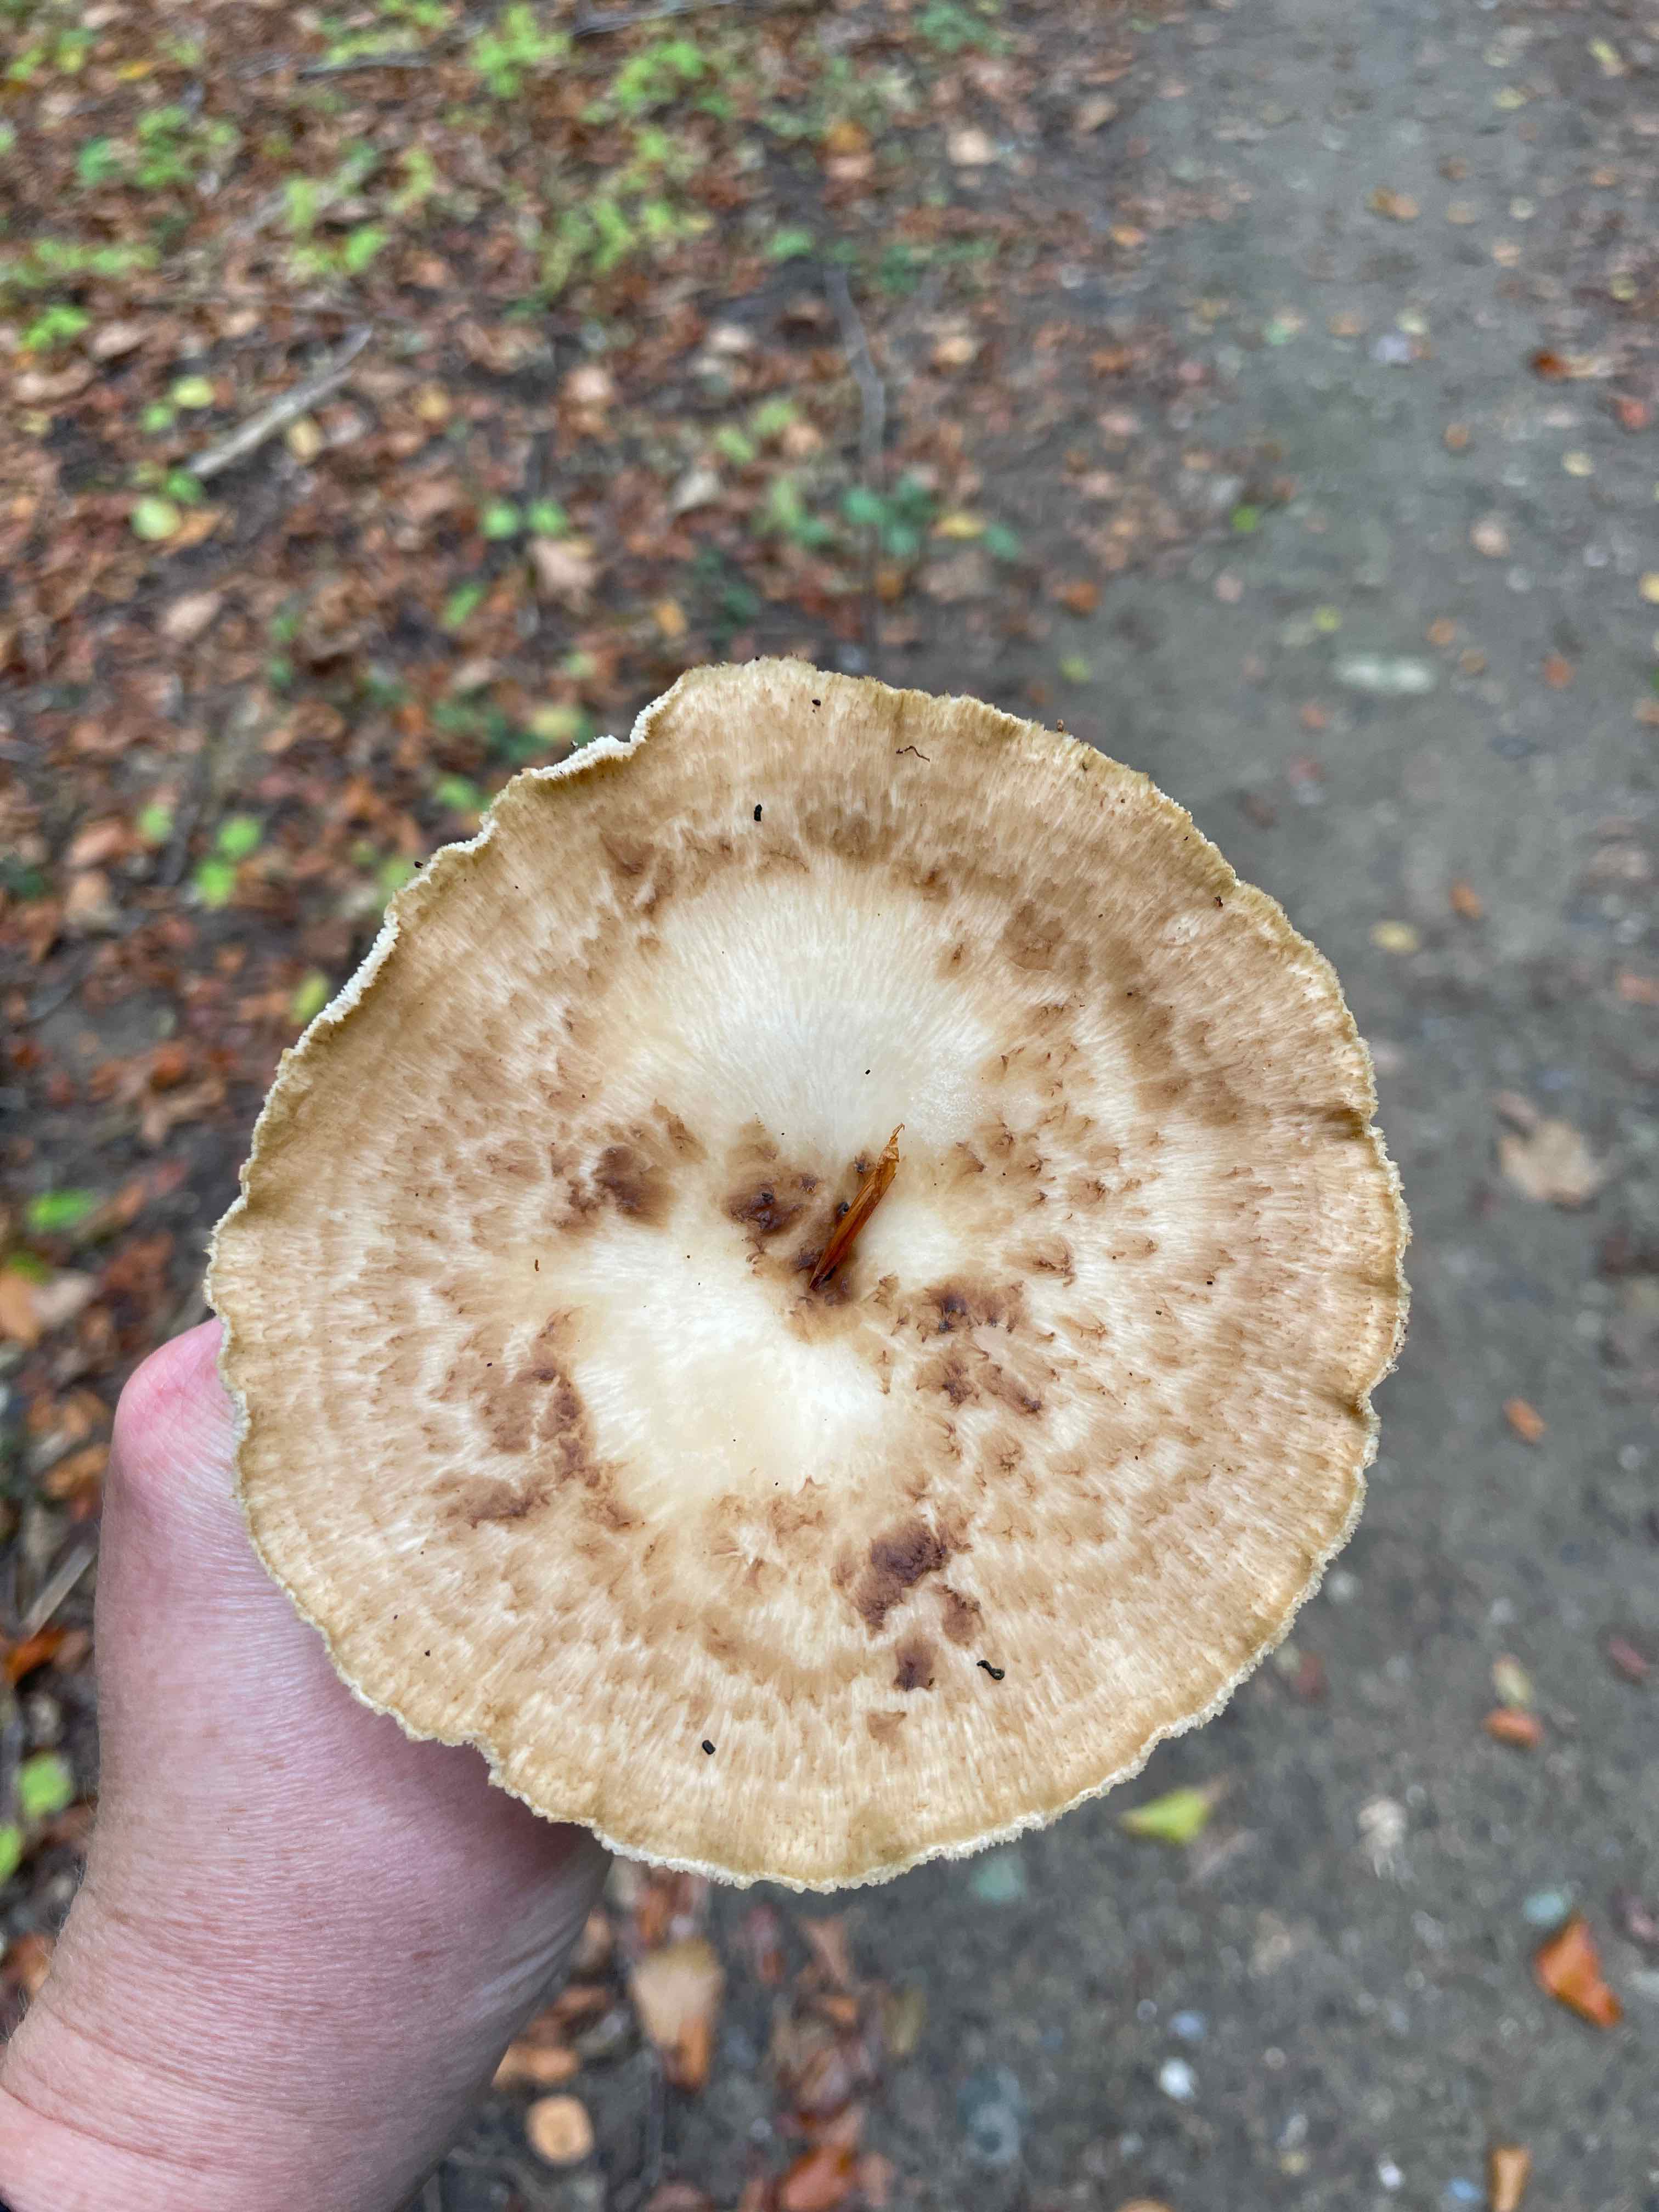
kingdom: Fungi
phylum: Basidiomycota
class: Agaricomycetes
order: Polyporales
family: Polyporaceae
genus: Polyporus
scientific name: Polyporus tuberaster
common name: knoldet stilkporesvamp
